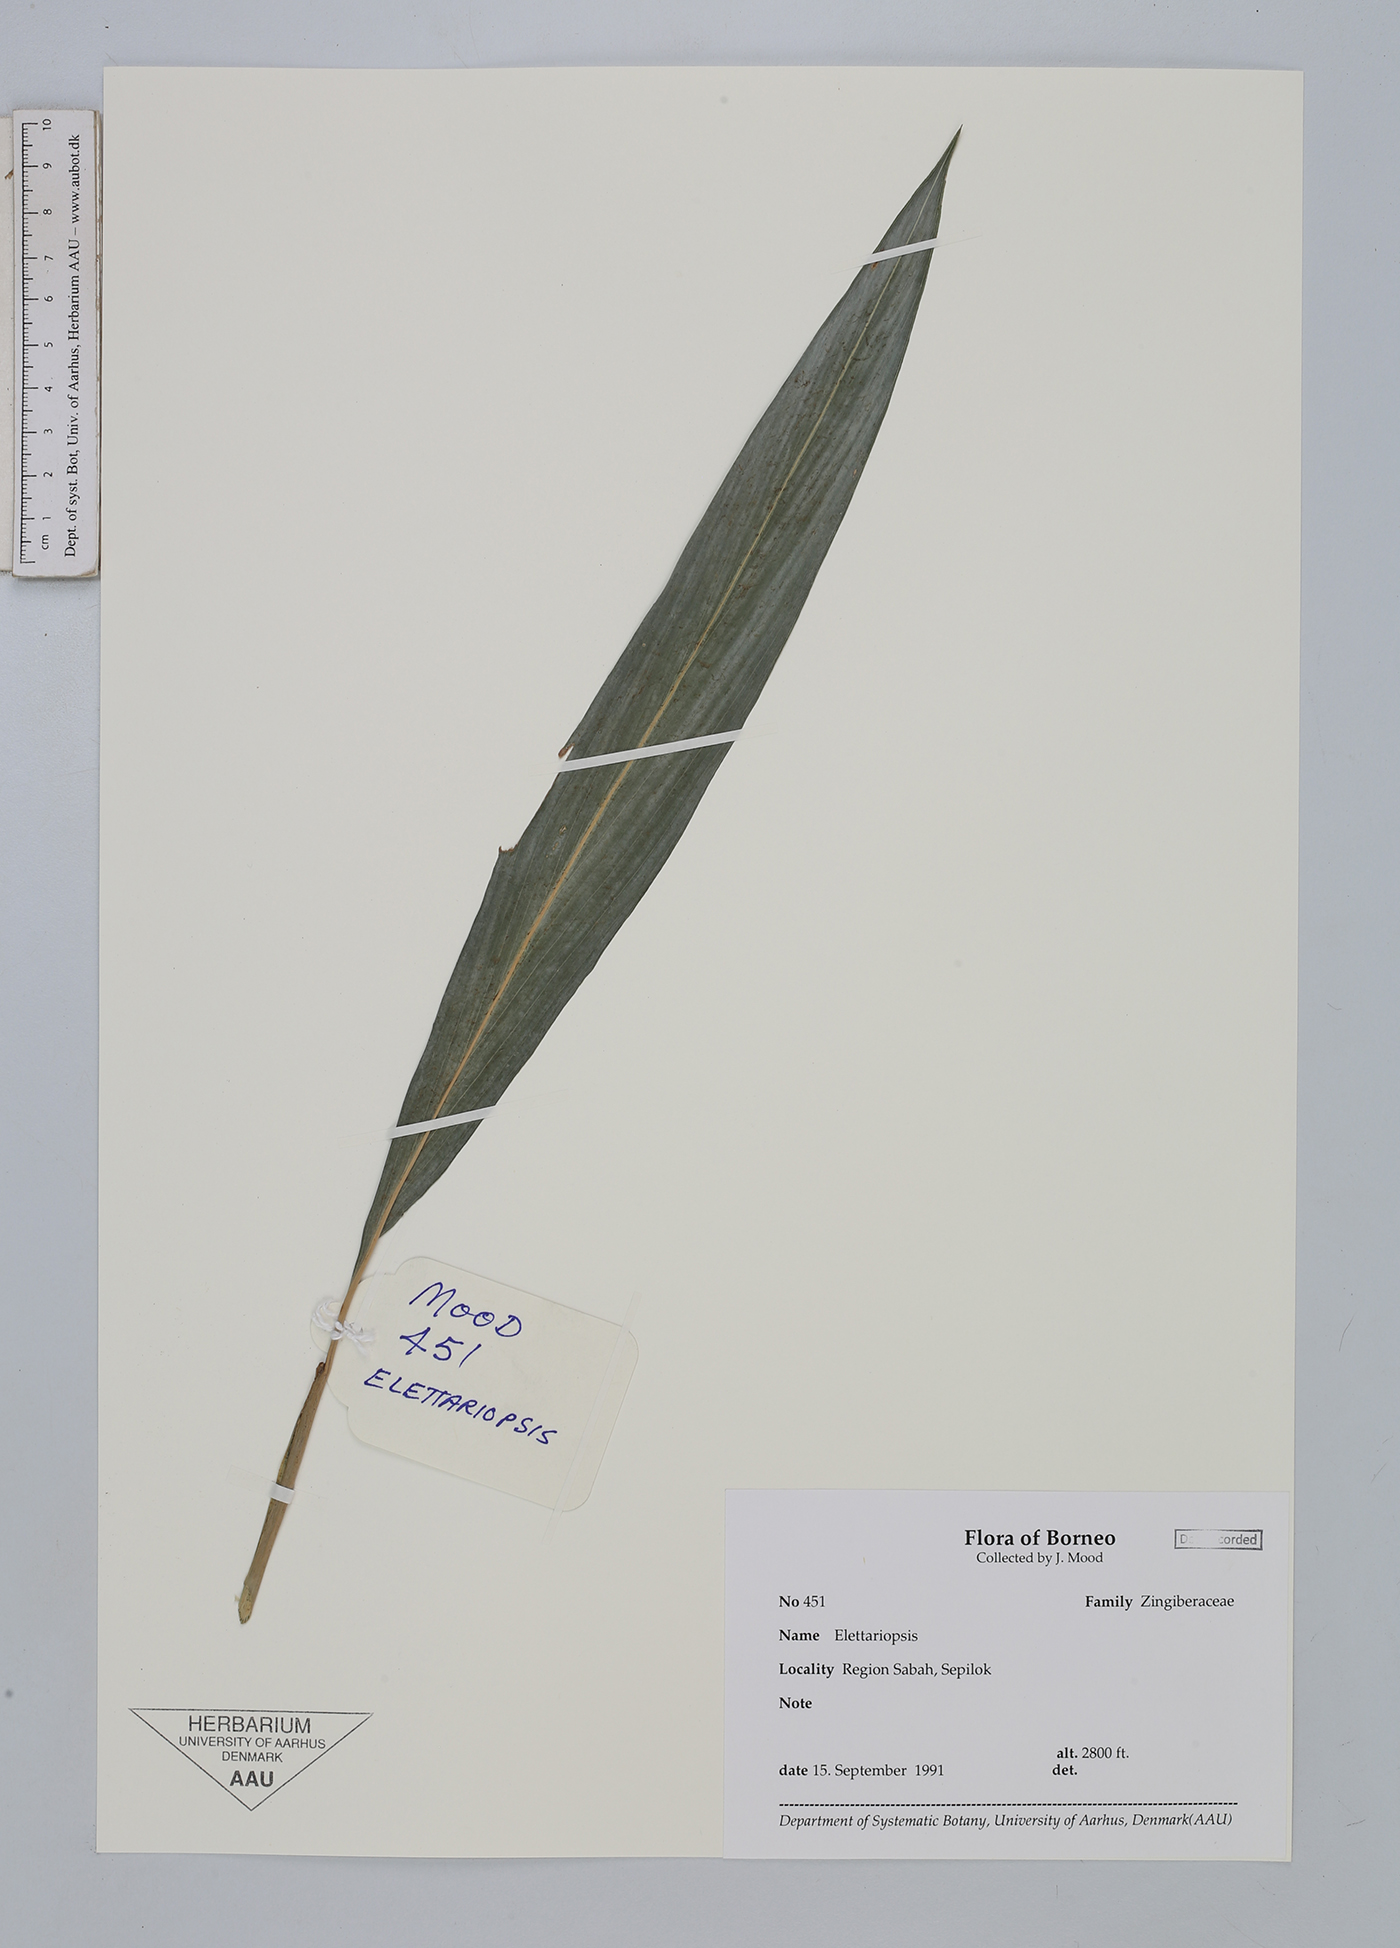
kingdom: Plantae
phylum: Tracheophyta
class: Liliopsida
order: Zingiberales
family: Zingiberaceae
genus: Amomum
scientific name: Amomum
